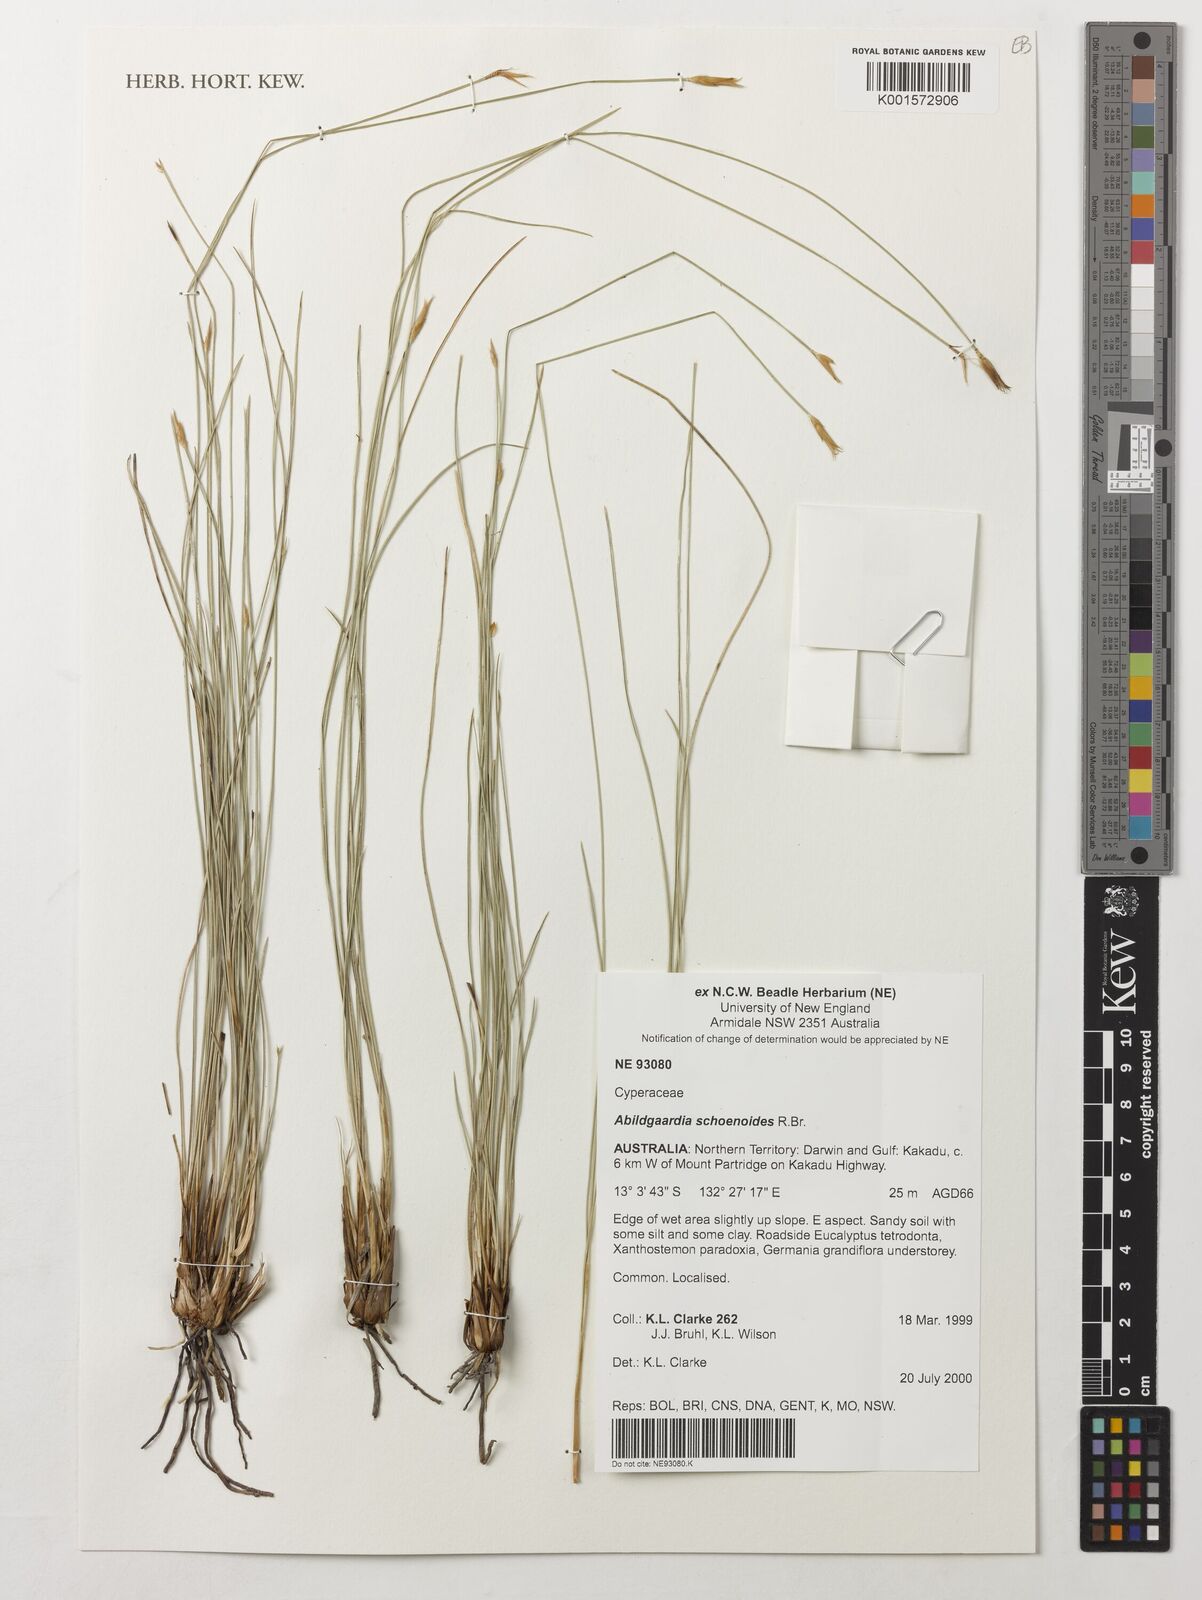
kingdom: Plantae
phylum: Tracheophyta
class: Liliopsida
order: Poales
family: Cyperaceae
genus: Abildgaardia
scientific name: Abildgaardia schoenoides
